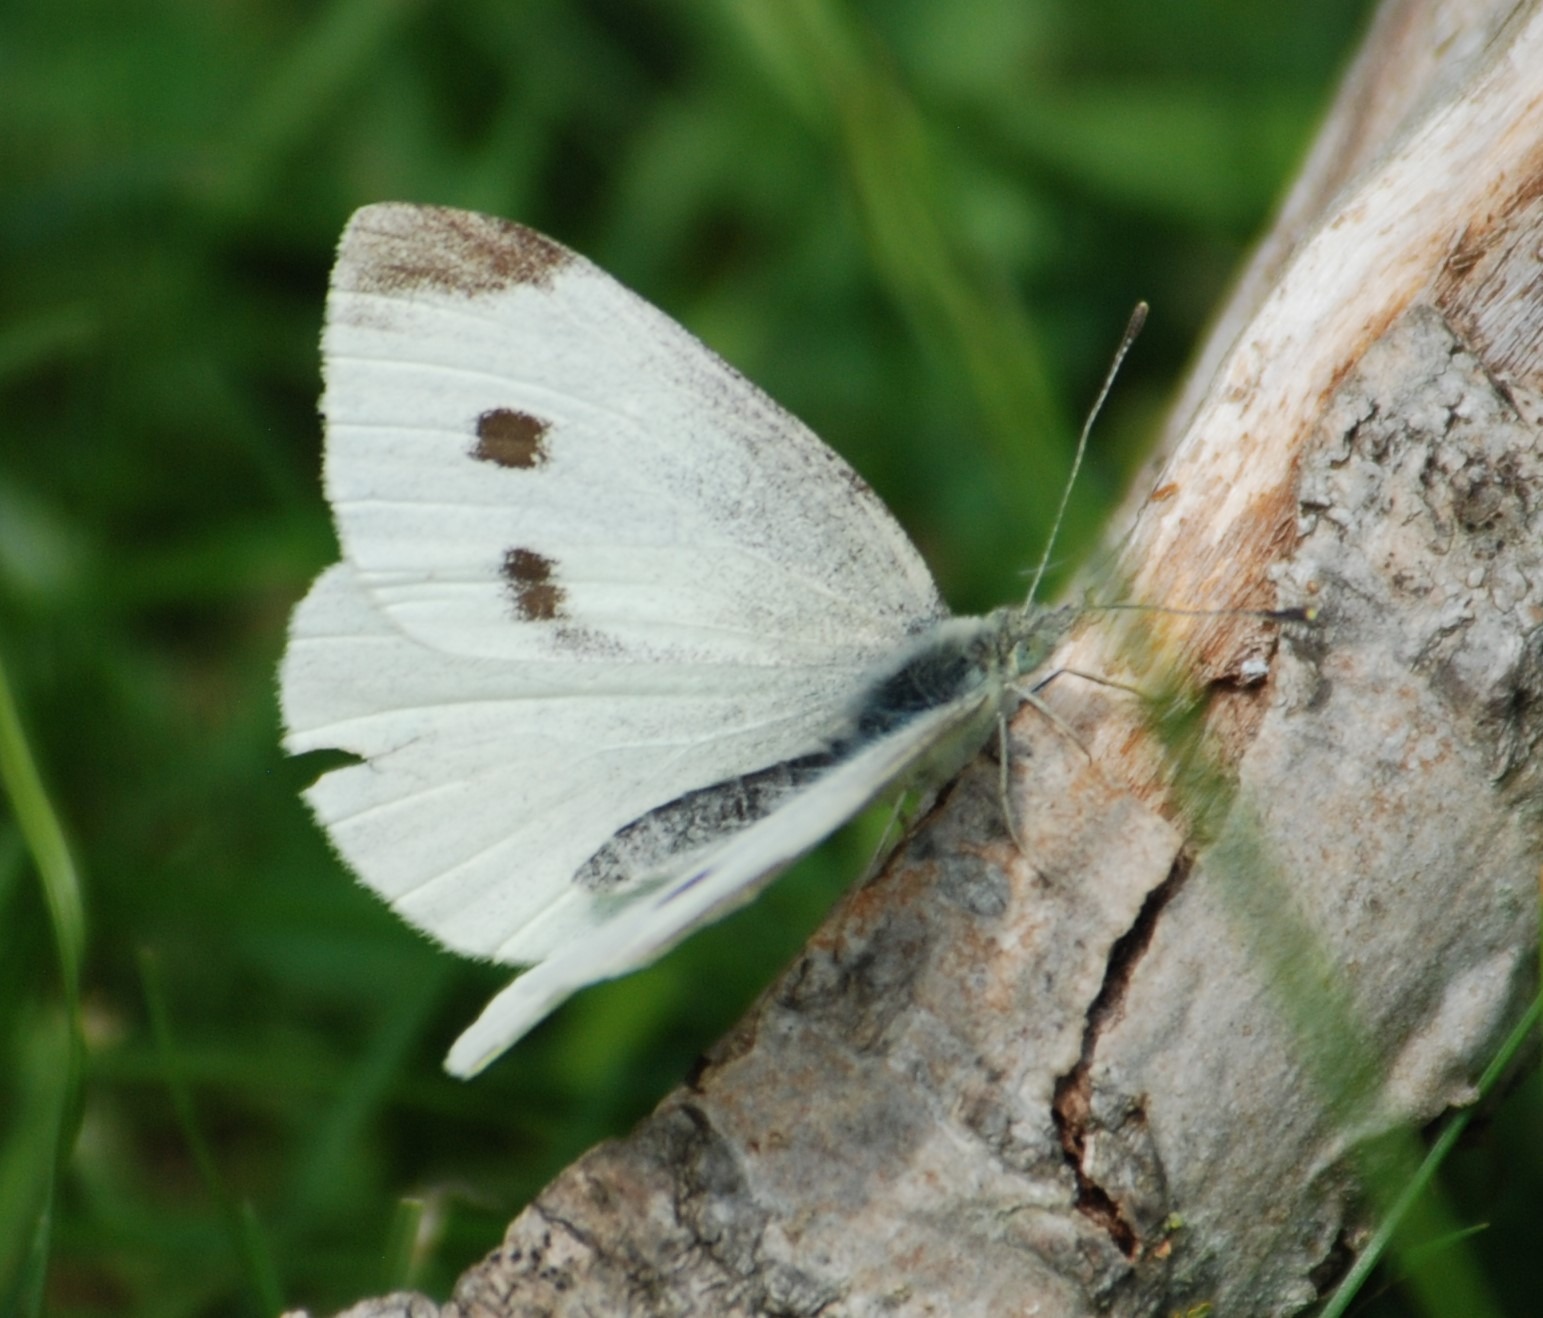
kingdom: Animalia
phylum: Arthropoda
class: Insecta
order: Lepidoptera
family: Pieridae
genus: Pieris
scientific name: Pieris rapae
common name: Lille kålsommerfugl
